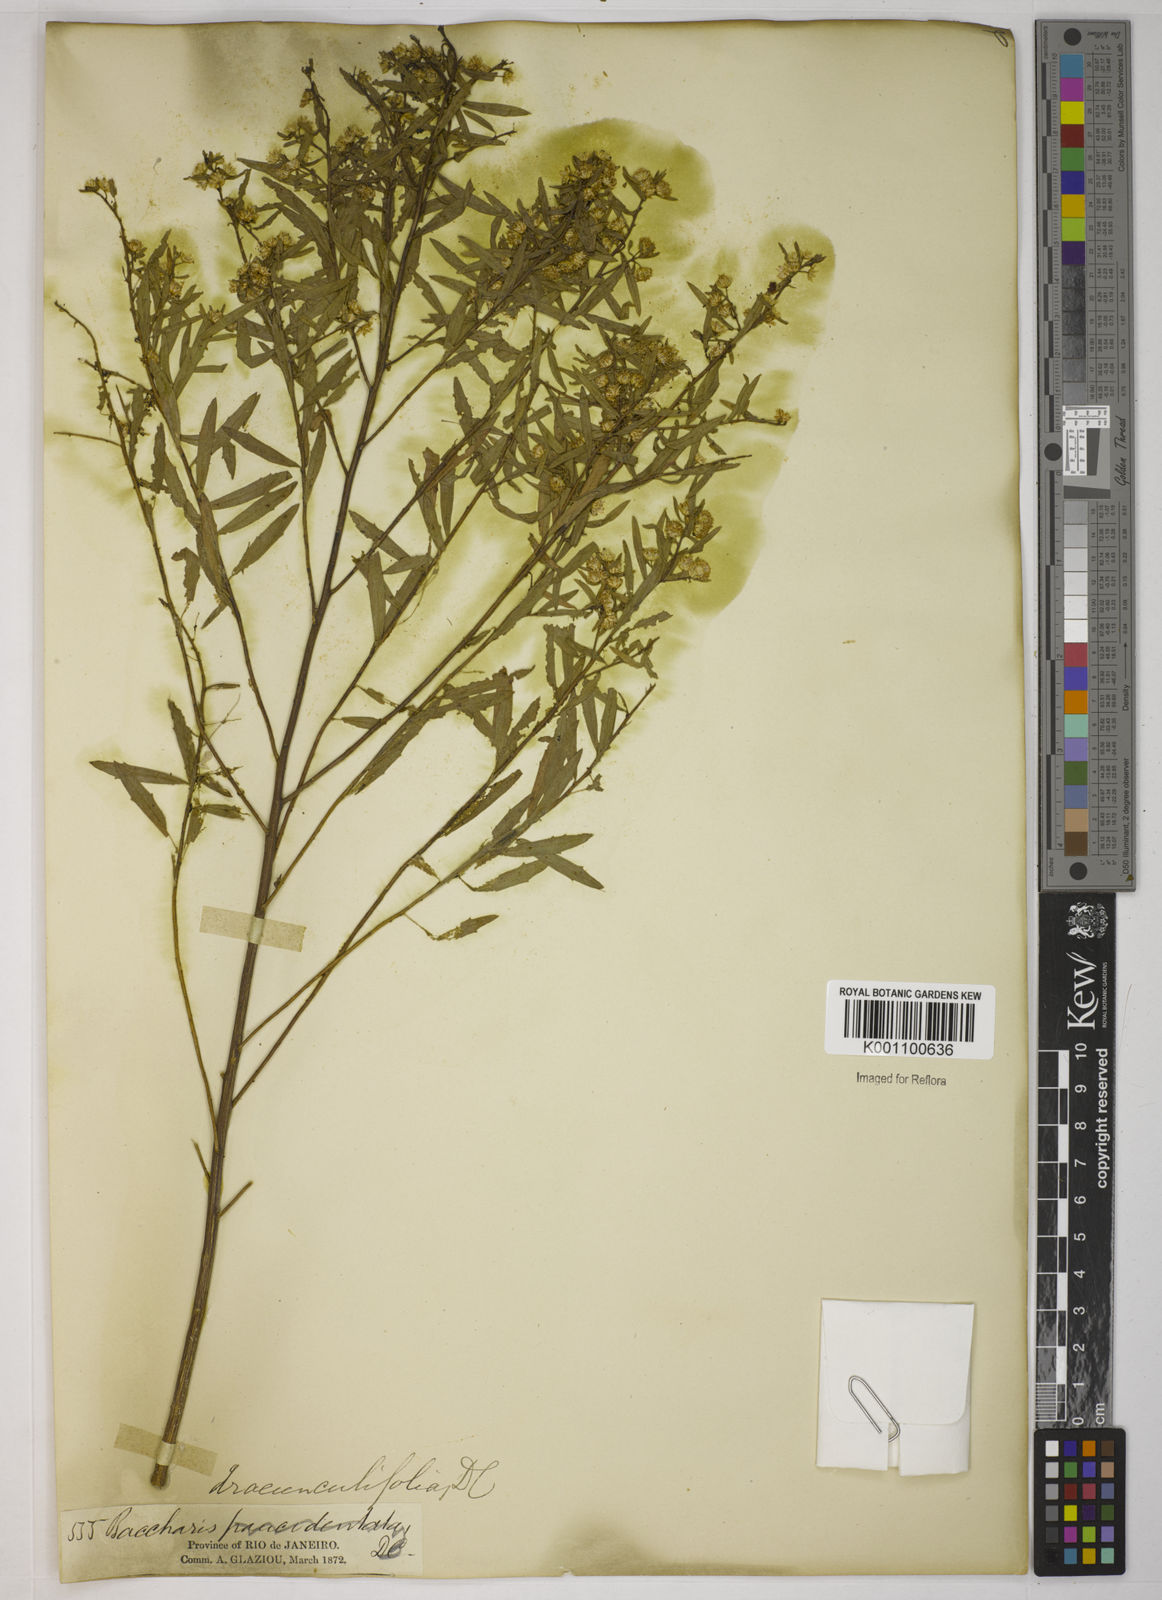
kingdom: Plantae
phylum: Tracheophyta
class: Magnoliopsida
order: Asterales
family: Asteraceae
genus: Baccharis
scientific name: Baccharis dracunculifolia
